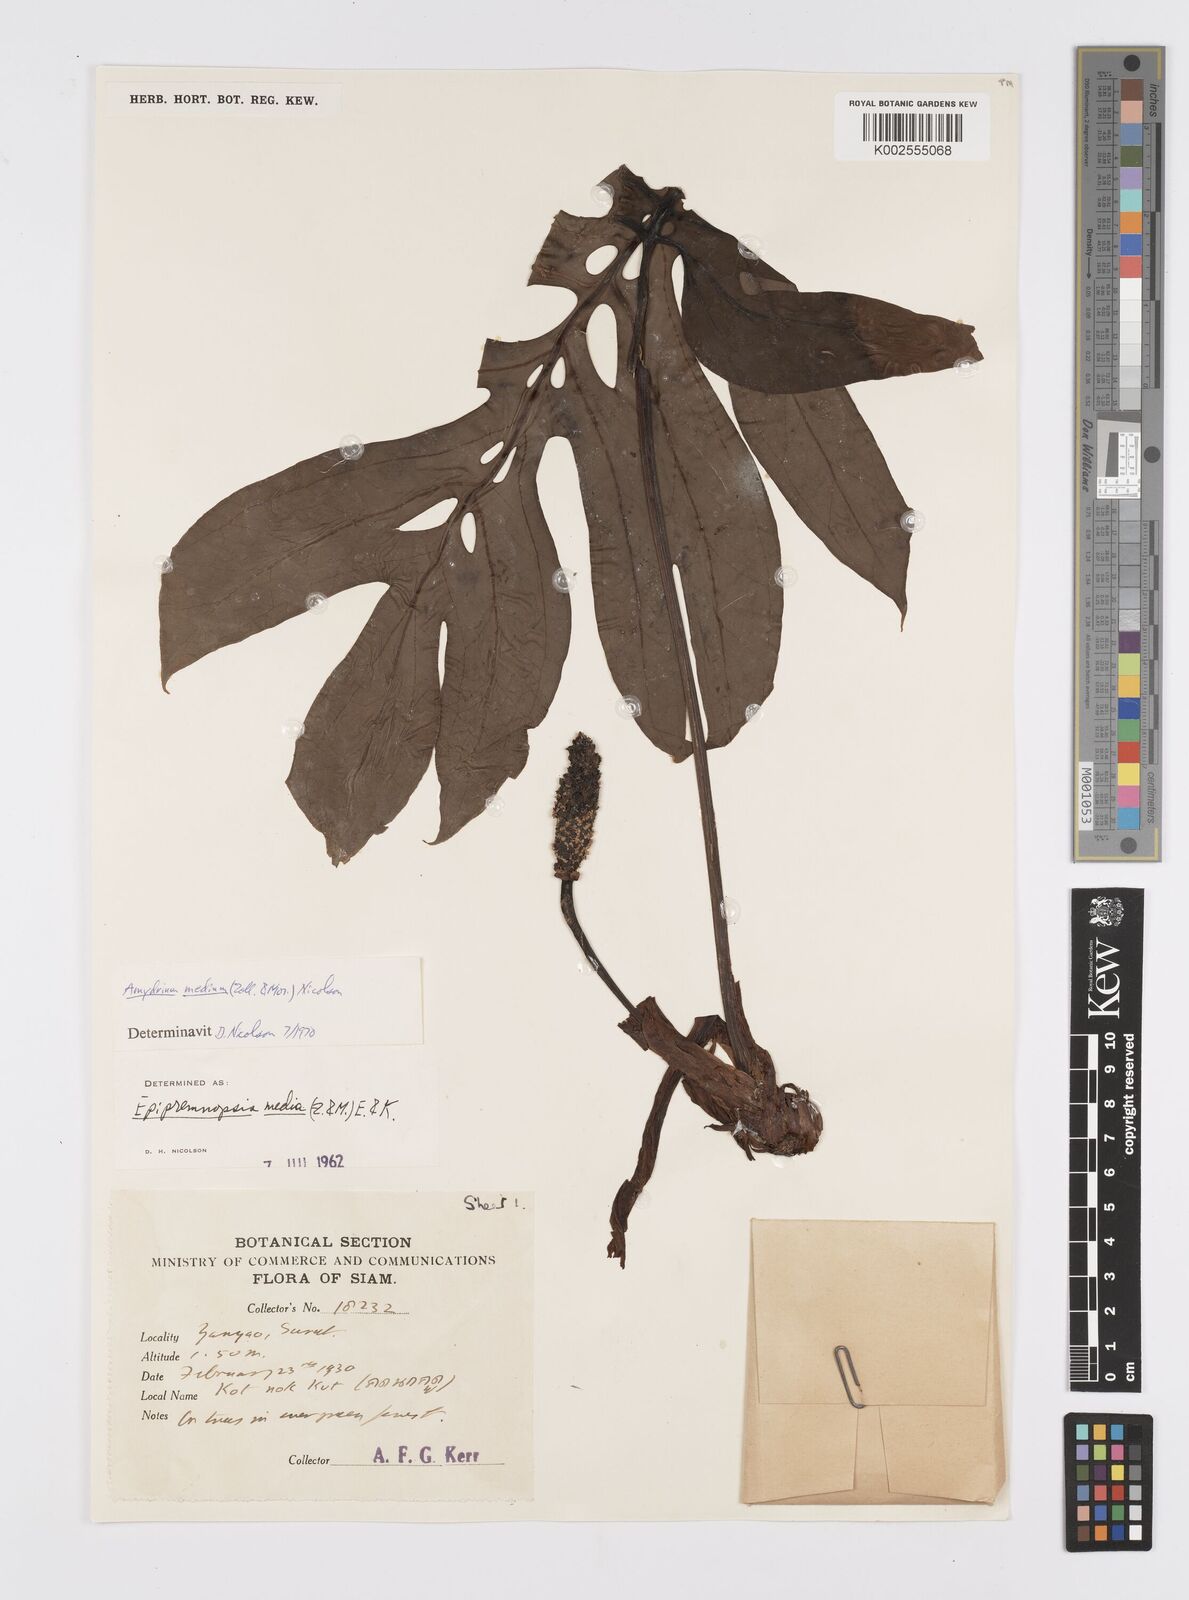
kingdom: Plantae
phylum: Tracheophyta
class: Liliopsida
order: Alismatales
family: Araceae
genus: Amydrium
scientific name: Amydrium medium
